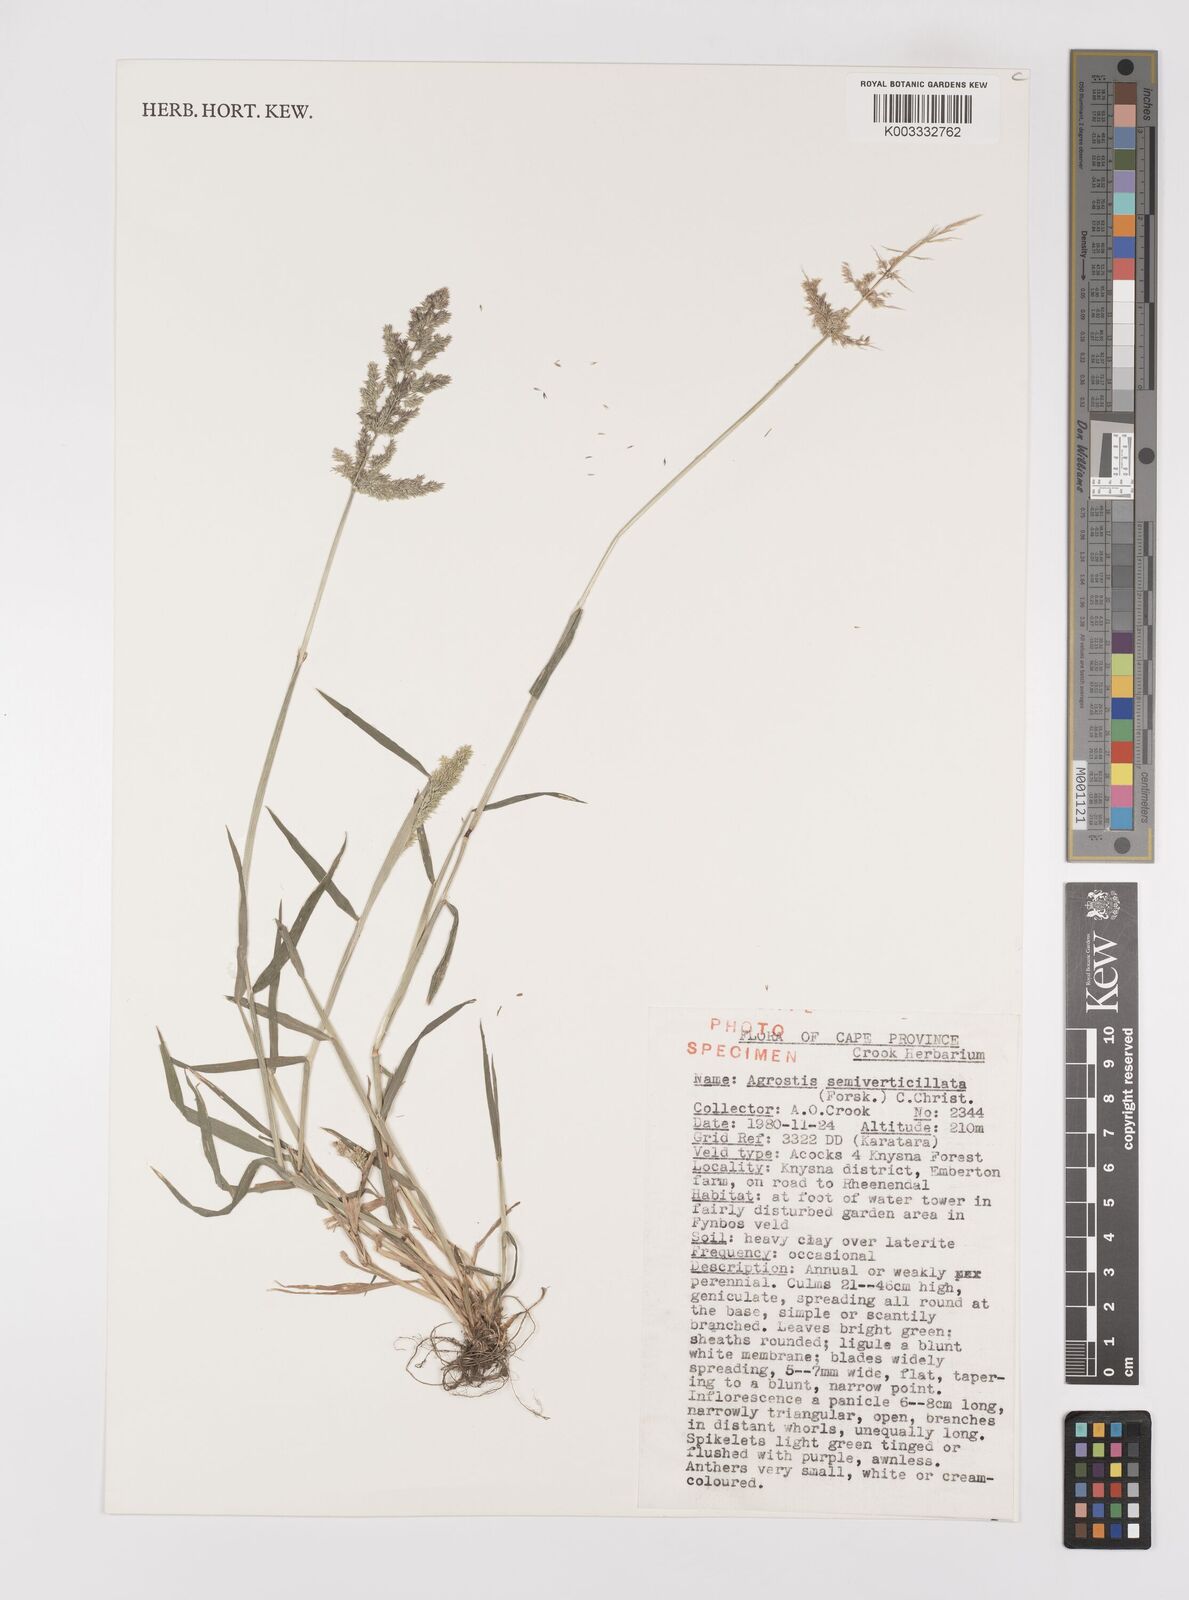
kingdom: Plantae
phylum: Tracheophyta
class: Liliopsida
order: Poales
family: Poaceae
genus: Polypogon
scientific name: Polypogon viridis
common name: Water bent
